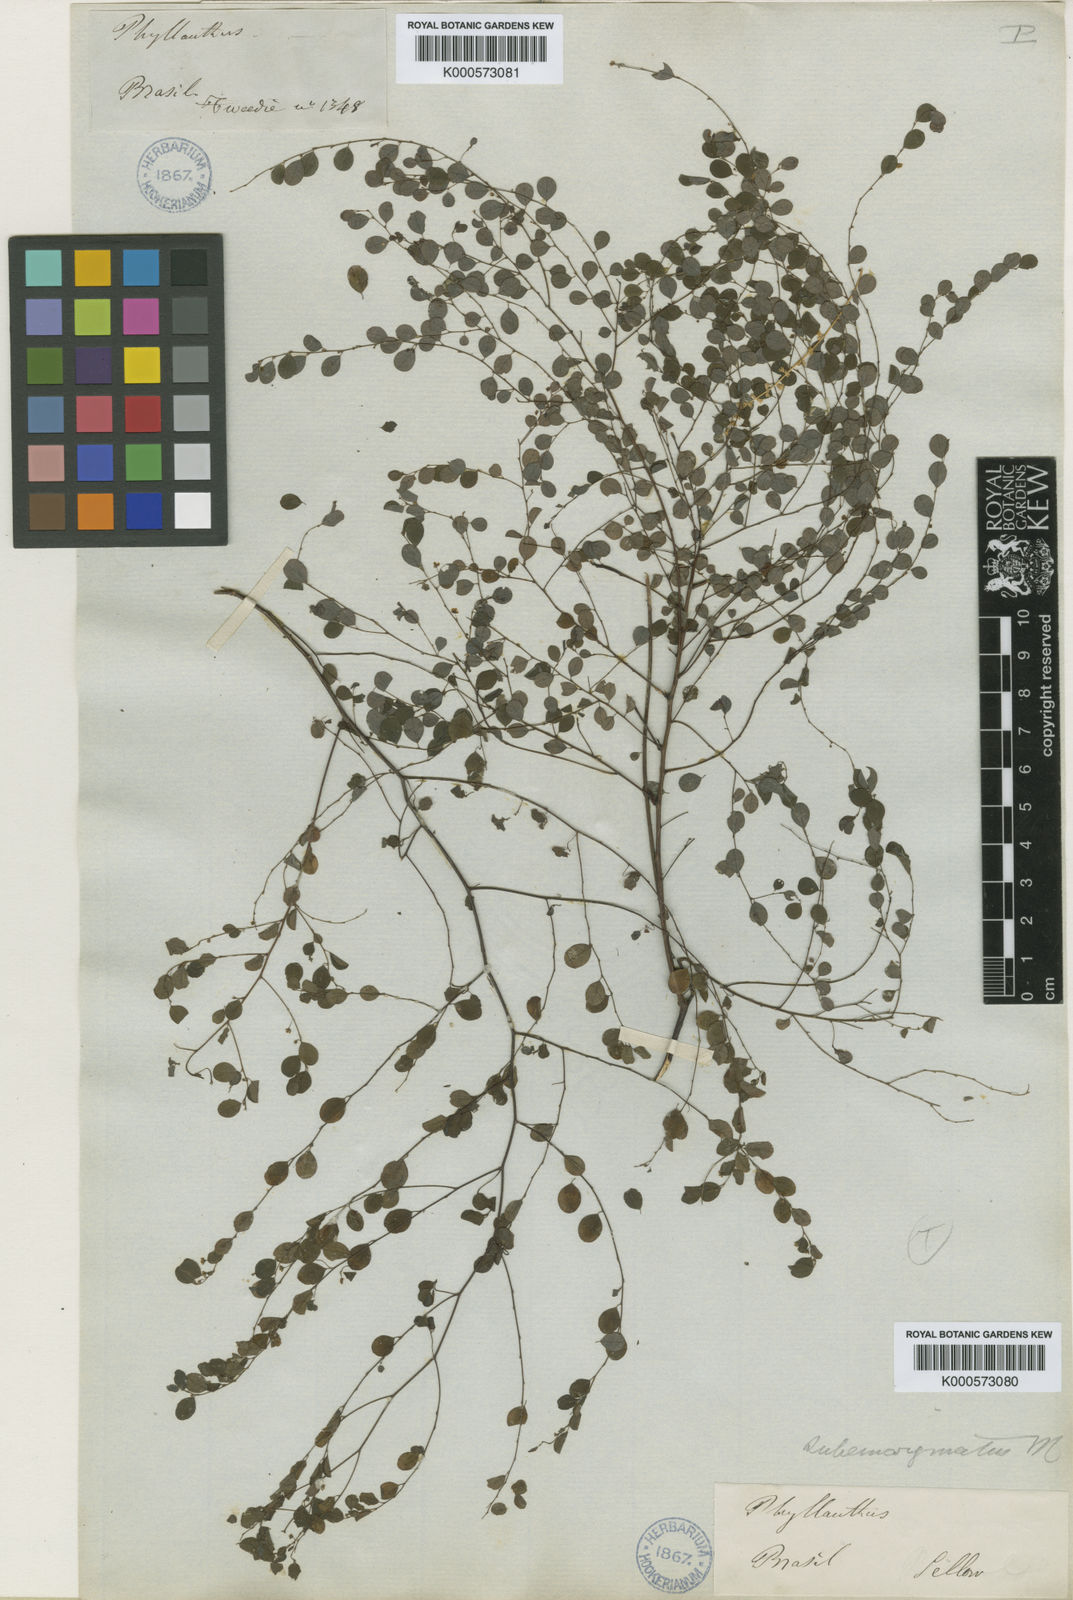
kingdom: Plantae
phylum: Tracheophyta
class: Magnoliopsida
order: Malpighiales
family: Phyllanthaceae
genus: Phyllanthus
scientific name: Phyllanthus
